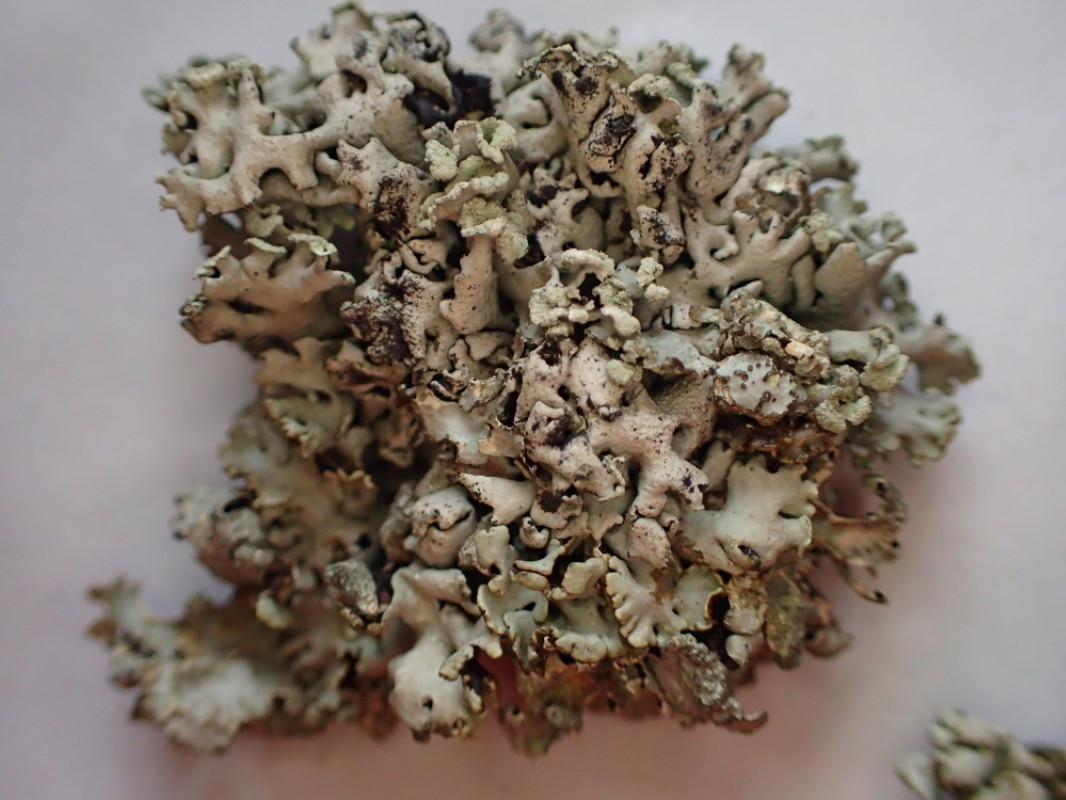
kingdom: Fungi
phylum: Ascomycota
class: Lecanoromycetes
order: Lecanorales
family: Parmeliaceae
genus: Hypogymnia
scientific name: Hypogymnia physodes
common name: almindelig kvistlav
